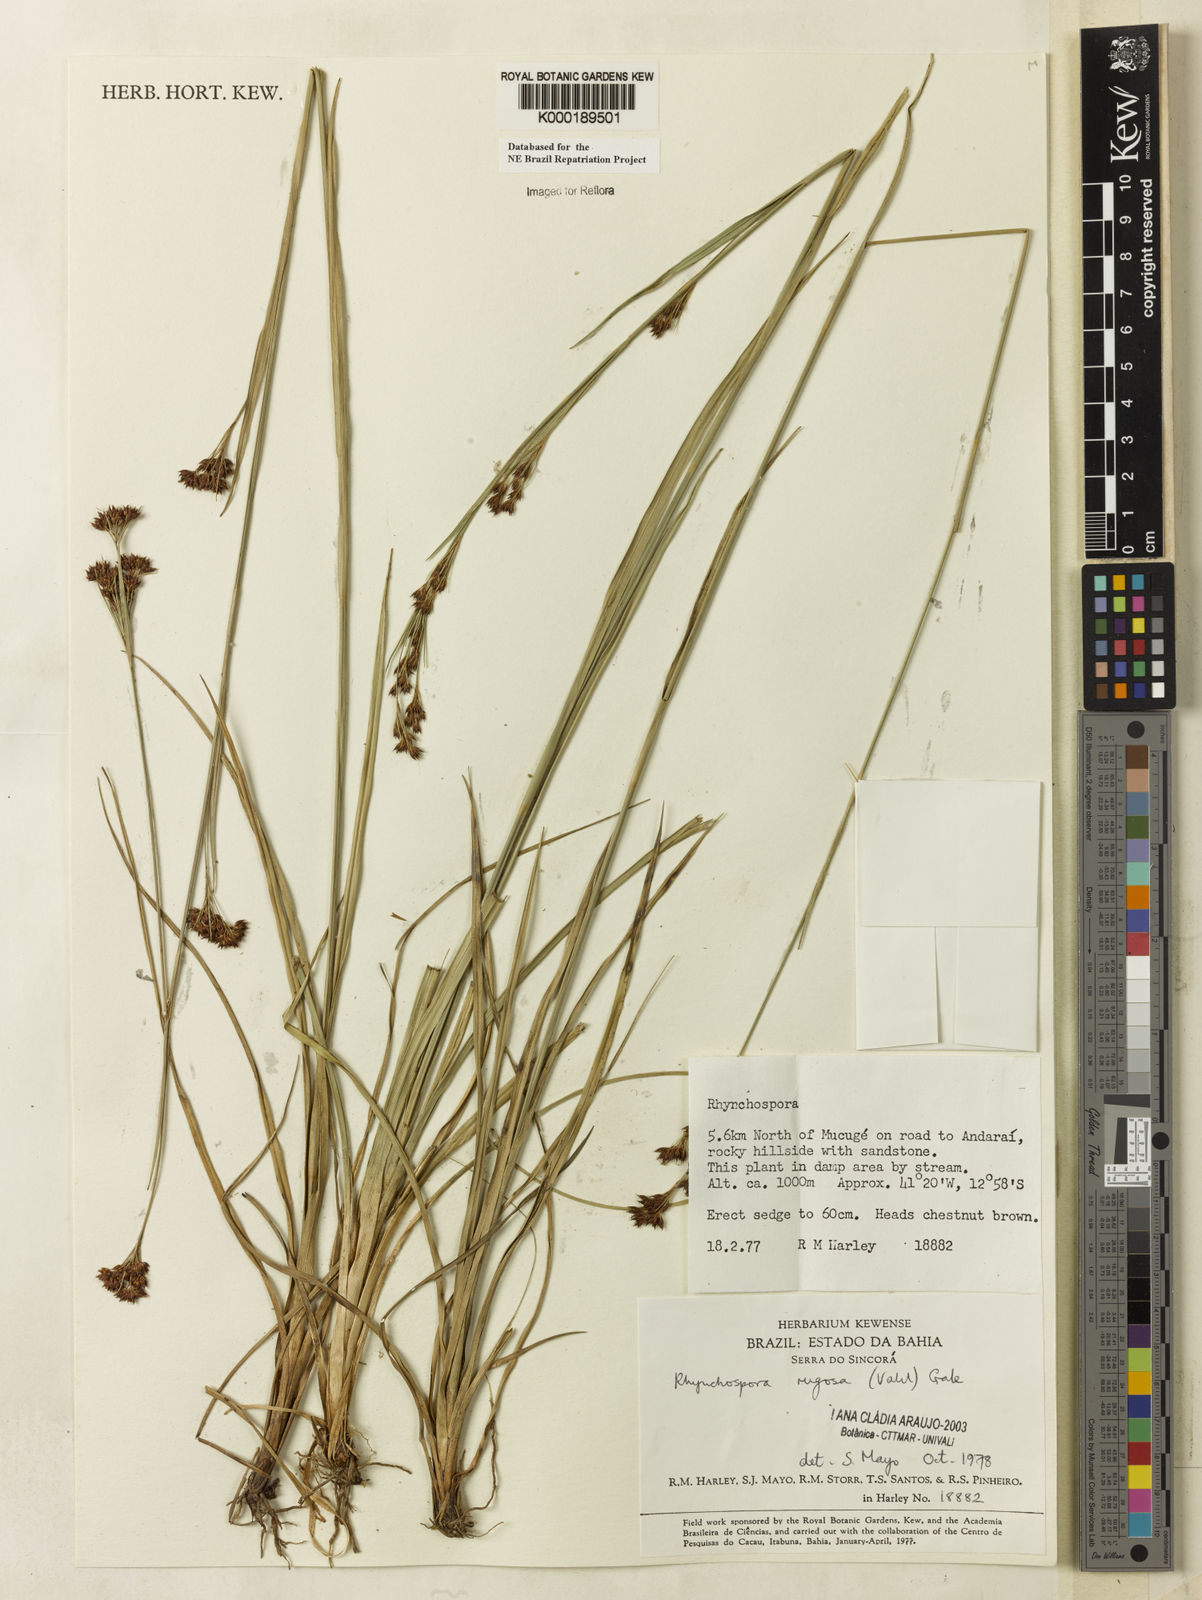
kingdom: Plantae
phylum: Tracheophyta
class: Liliopsida
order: Poales
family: Cyperaceae
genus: Rhynchospora
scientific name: Rhynchospora rugosa
